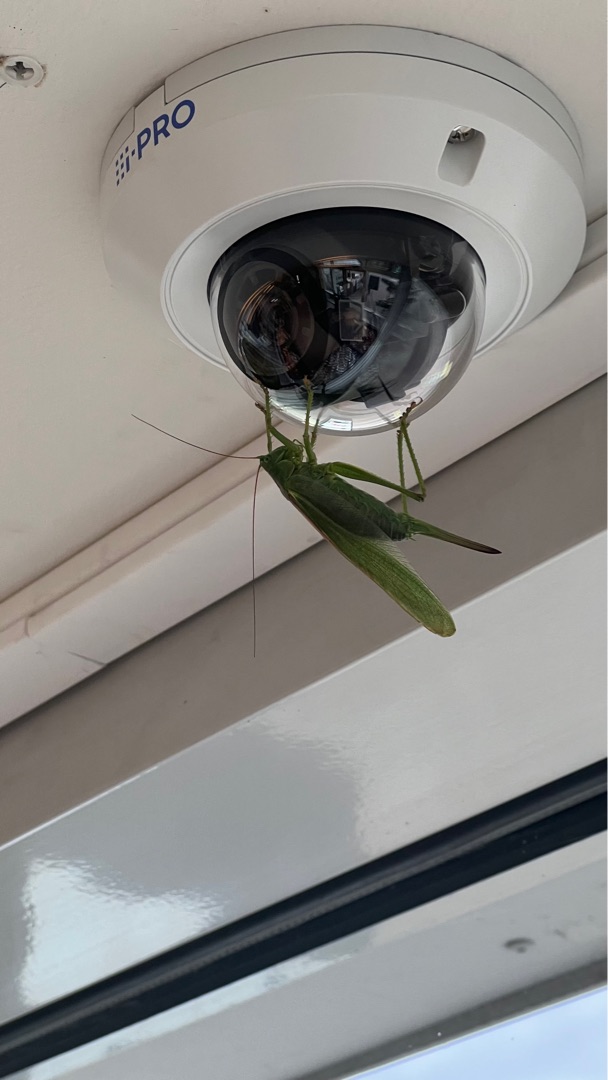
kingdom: Animalia
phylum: Arthropoda
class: Insecta
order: Orthoptera
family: Tettigoniidae
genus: Tettigonia
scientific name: Tettigonia viridissima
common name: Stor grøn løvgræshoppe
